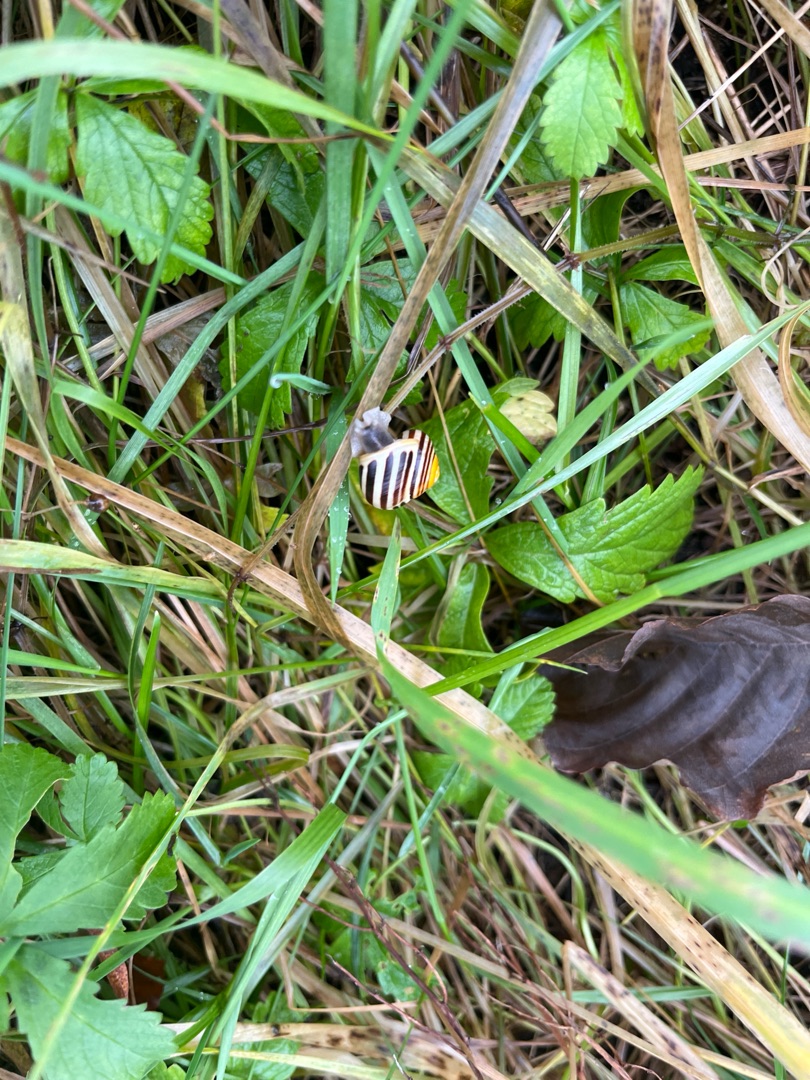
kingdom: Animalia
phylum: Mollusca
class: Gastropoda
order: Stylommatophora
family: Helicidae
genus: Cepaea
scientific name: Cepaea hortensis
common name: Havesnegl
